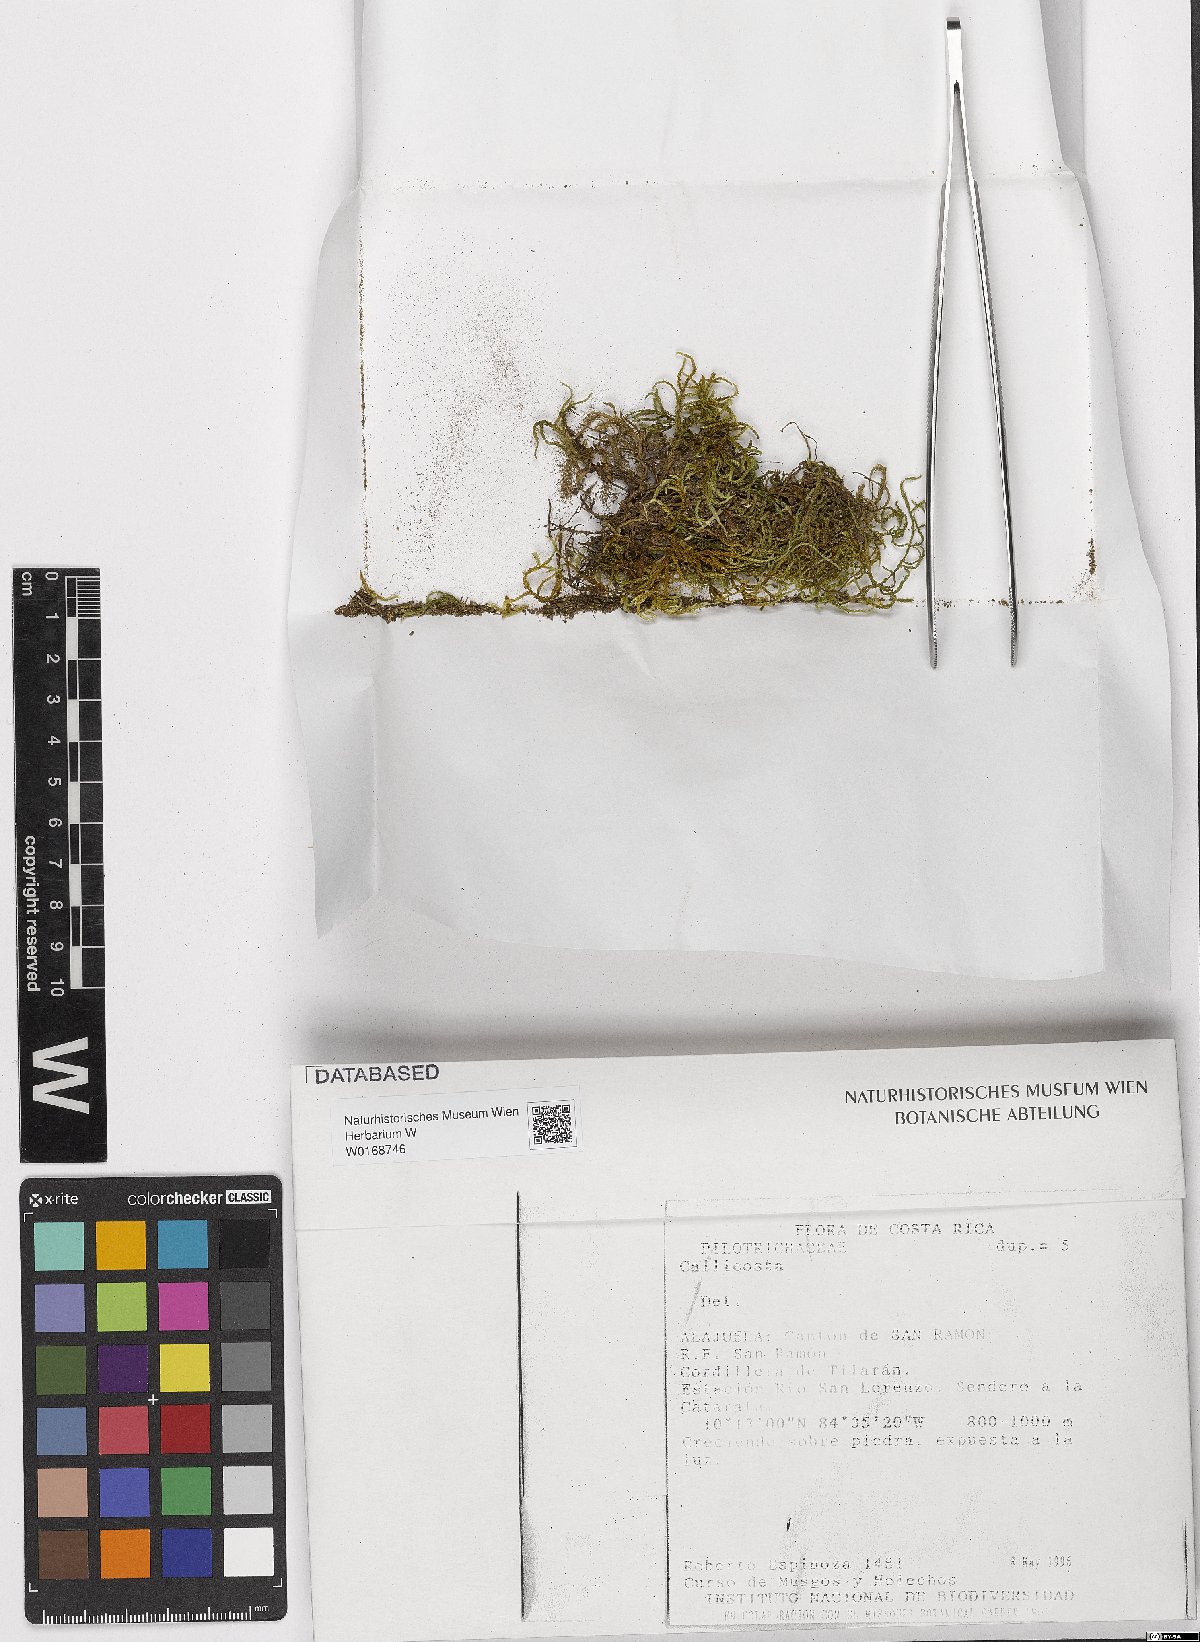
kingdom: Plantae
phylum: Bryophyta
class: Bryopsida
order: Hookeriales
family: Pilotrichaceae
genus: Pilotrichum
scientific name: Pilotrichum
